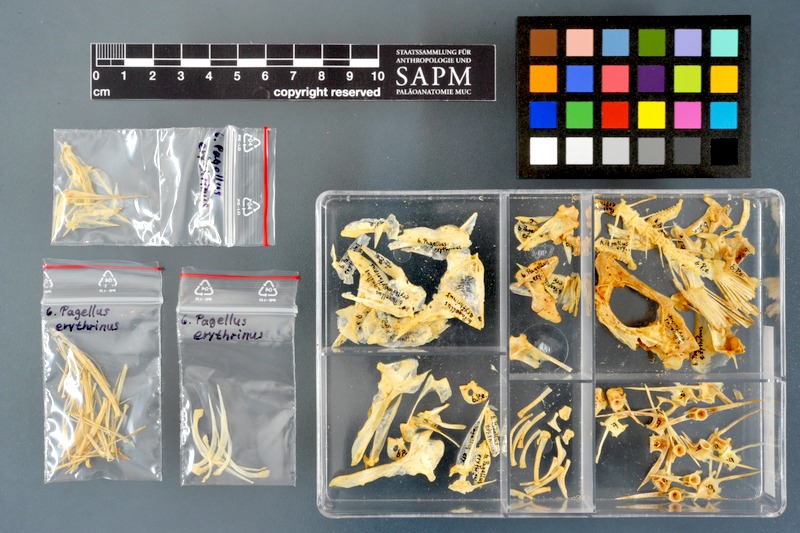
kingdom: Animalia
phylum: Chordata
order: Perciformes
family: Sparidae
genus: Pagellus
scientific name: Pagellus erythrinus
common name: Pandora
